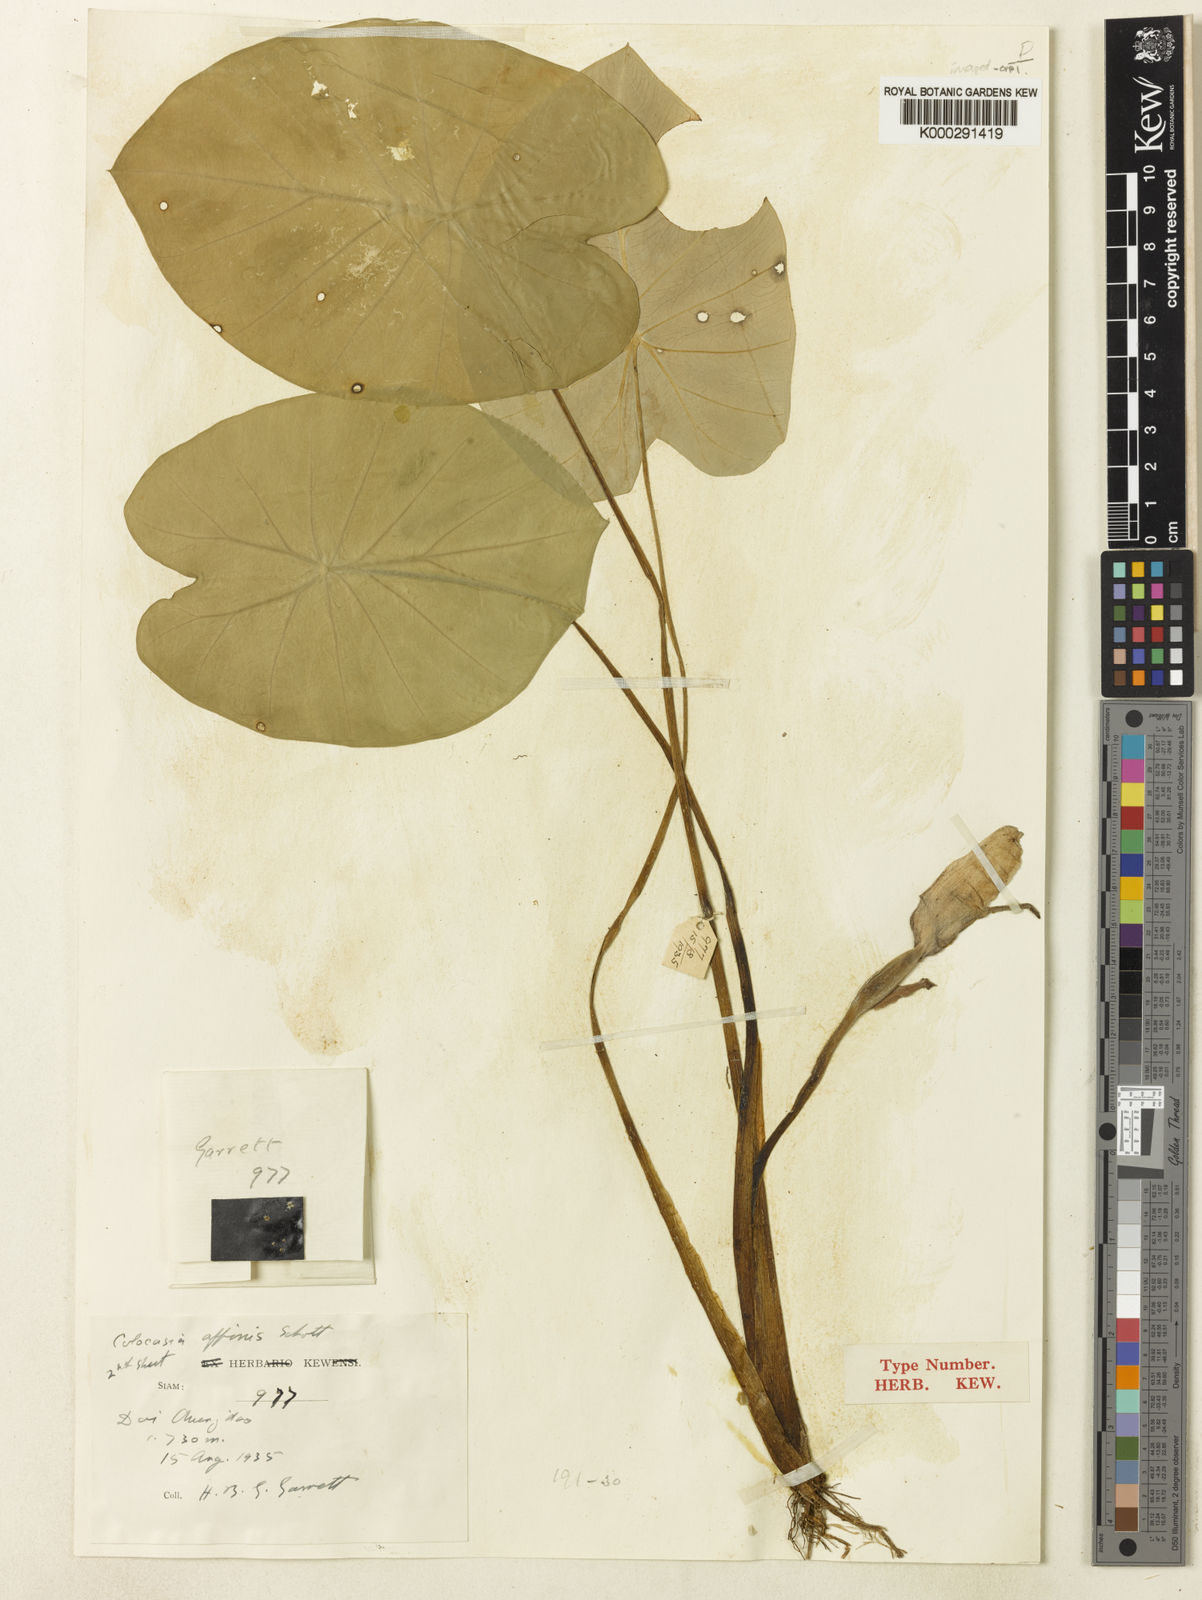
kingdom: Plantae
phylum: Tracheophyta
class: Liliopsida
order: Alismatales
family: Araceae
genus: Colocasia
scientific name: Colocasia fallax
